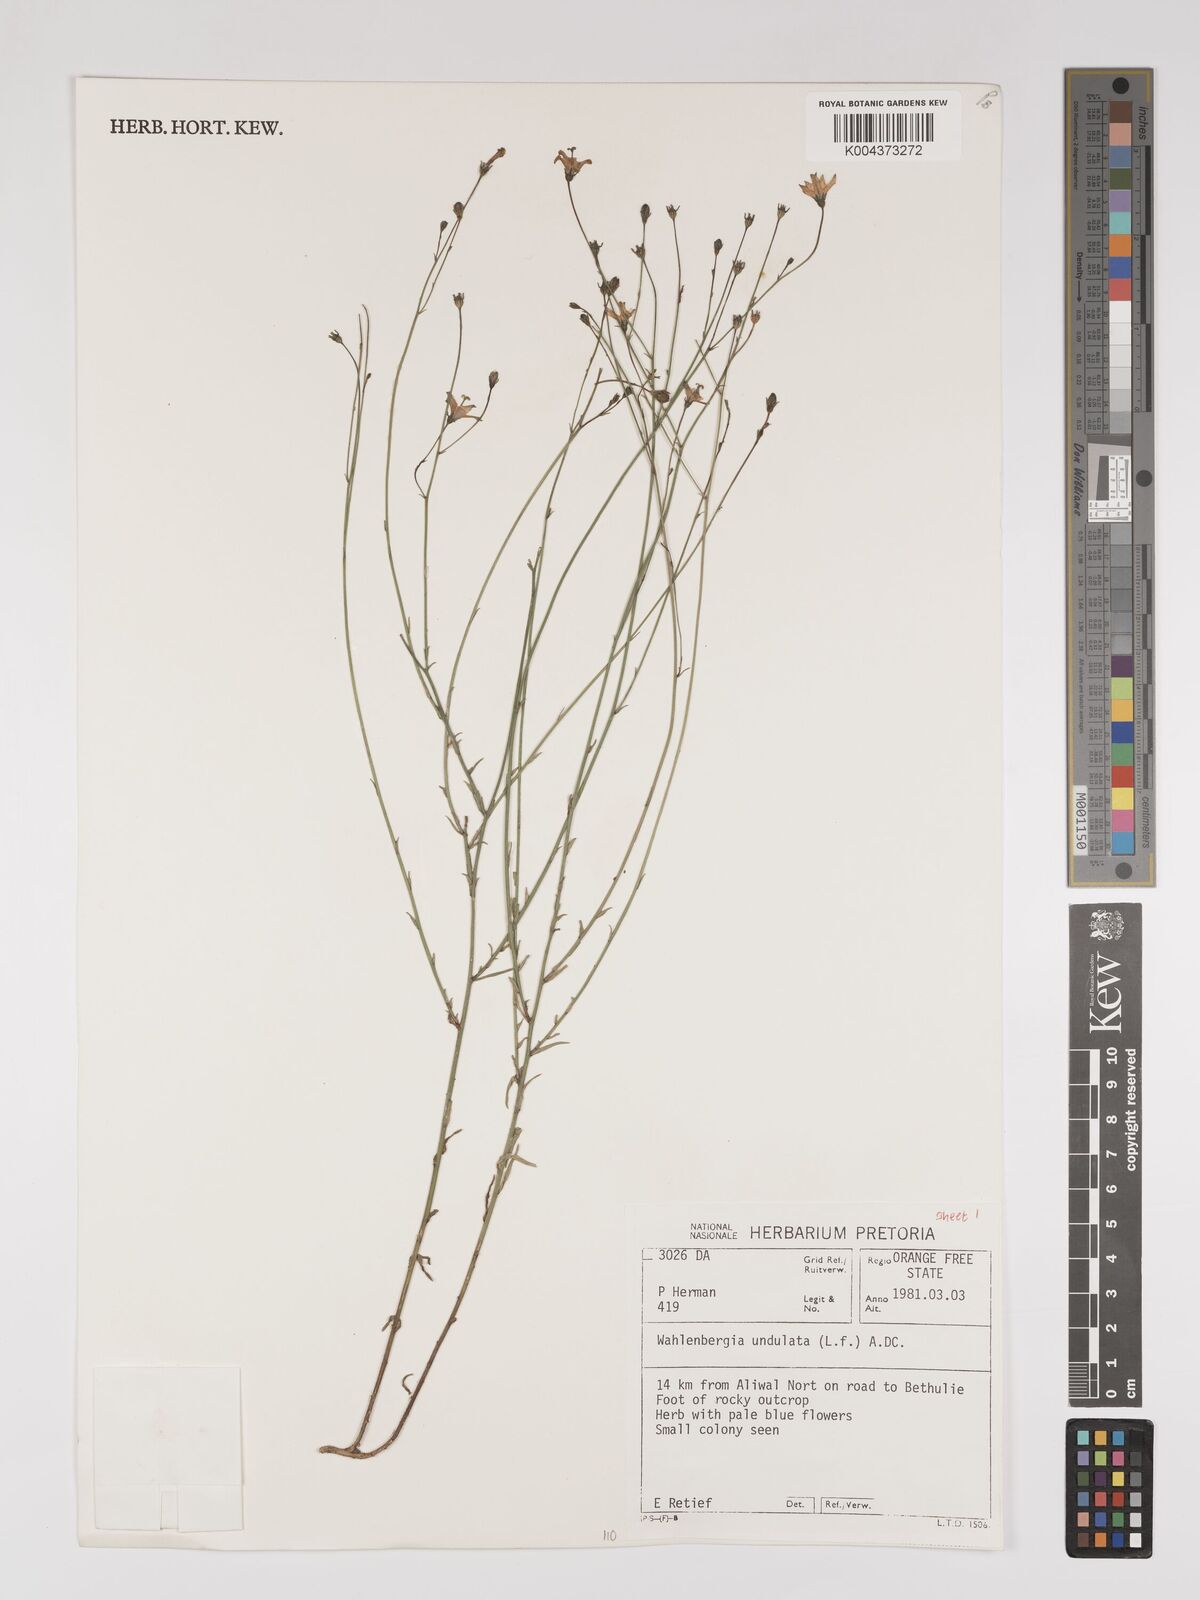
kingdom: Plantae
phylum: Tracheophyta
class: Magnoliopsida
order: Asterales
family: Campanulaceae
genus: Wahlenbergia
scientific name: Wahlenbergia undulata
